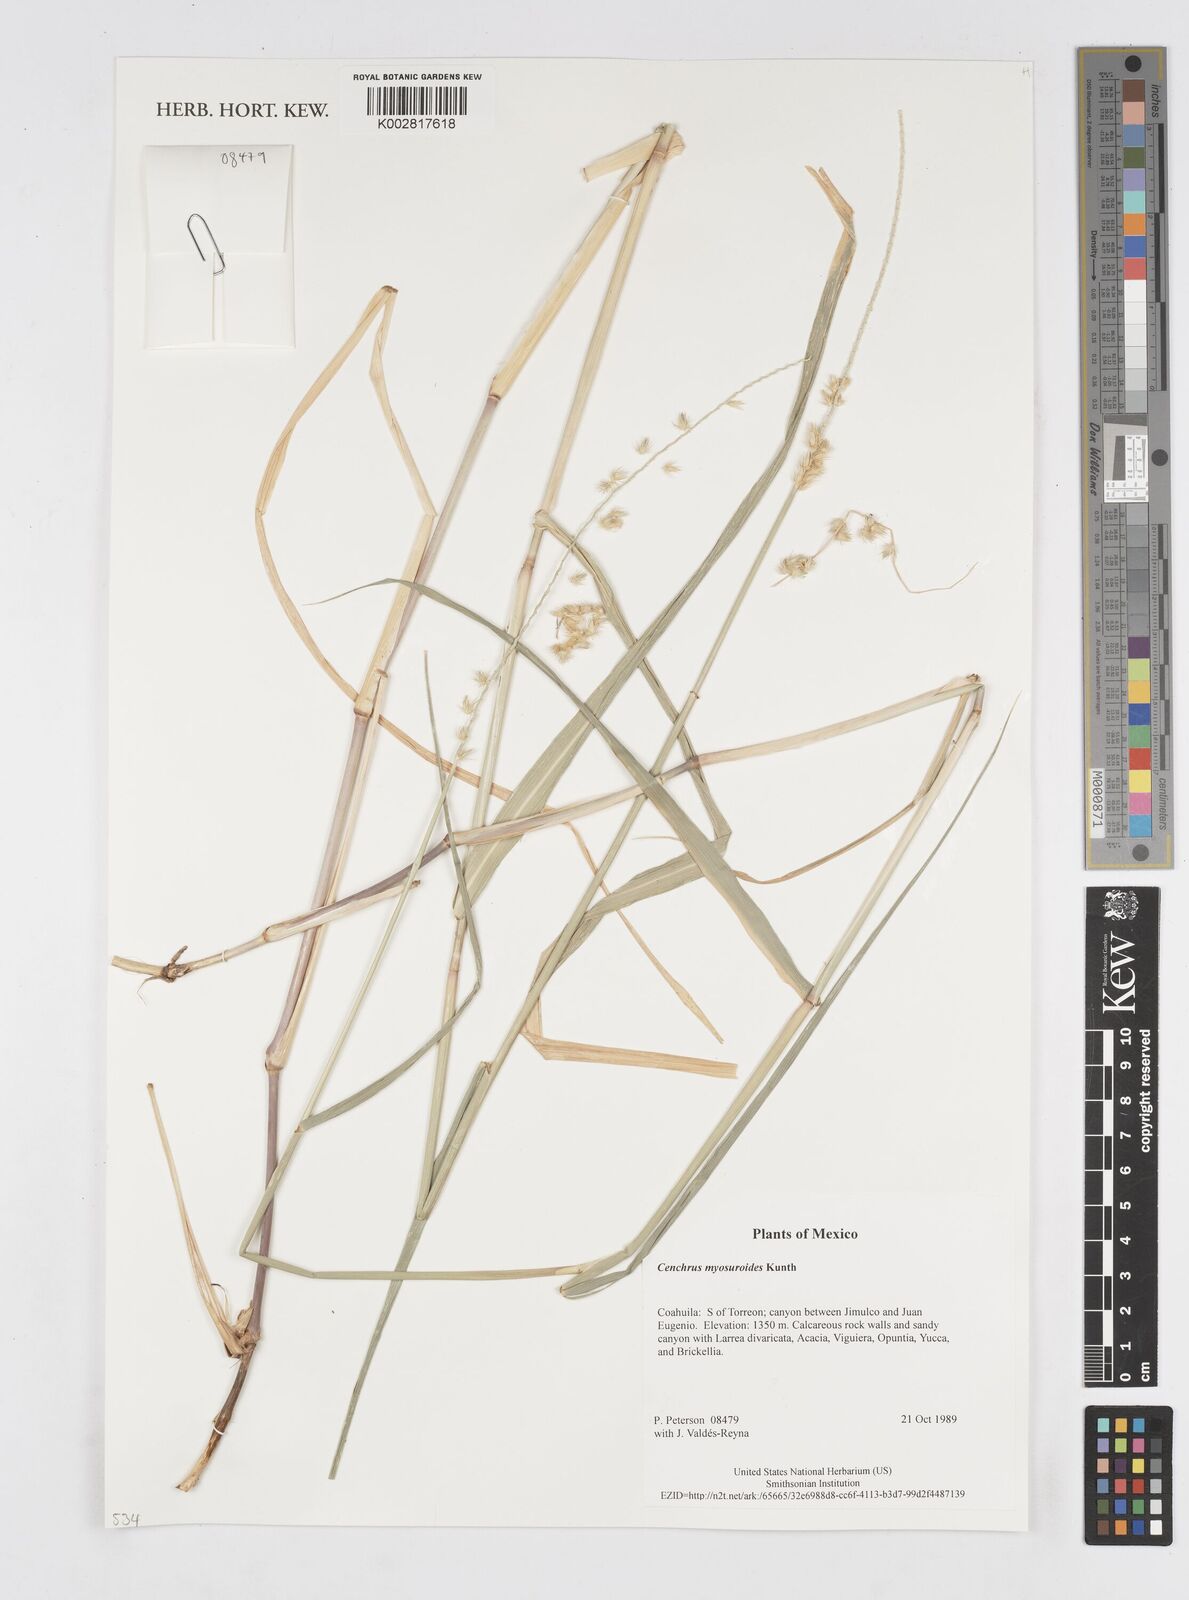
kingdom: Plantae
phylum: Tracheophyta
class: Liliopsida
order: Poales
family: Poaceae
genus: Cenchrus
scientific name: Cenchrus myosuroides
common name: Big sandbur
